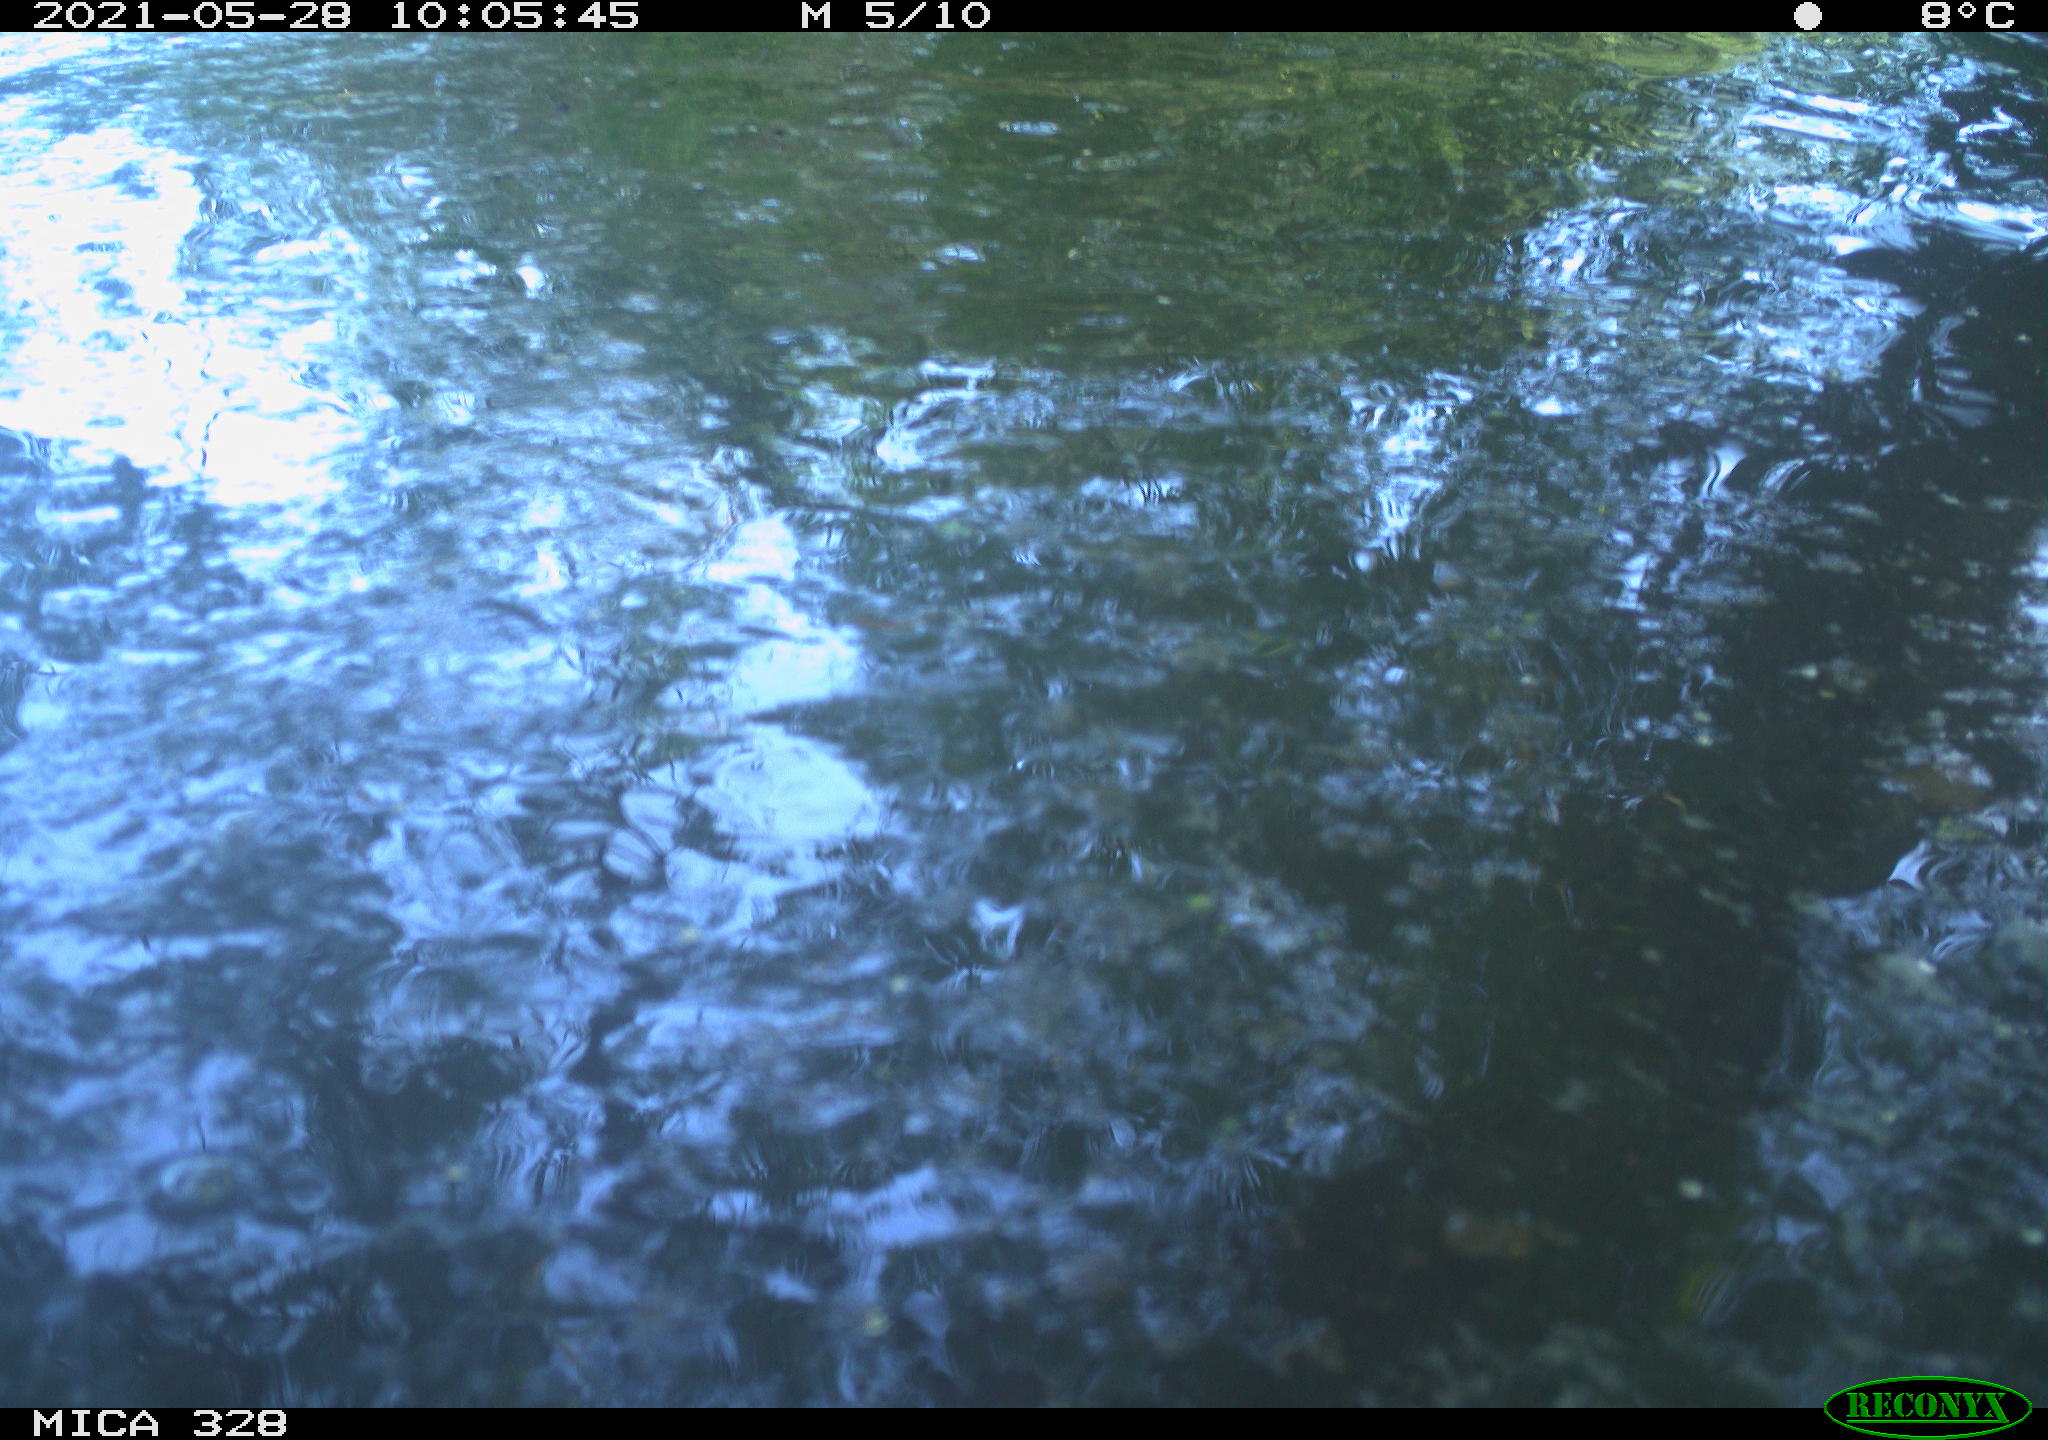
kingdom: Animalia
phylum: Chordata
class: Mammalia
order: Rodentia
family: Cricetidae
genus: Ondatra
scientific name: Ondatra zibethicus
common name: Muskrat
